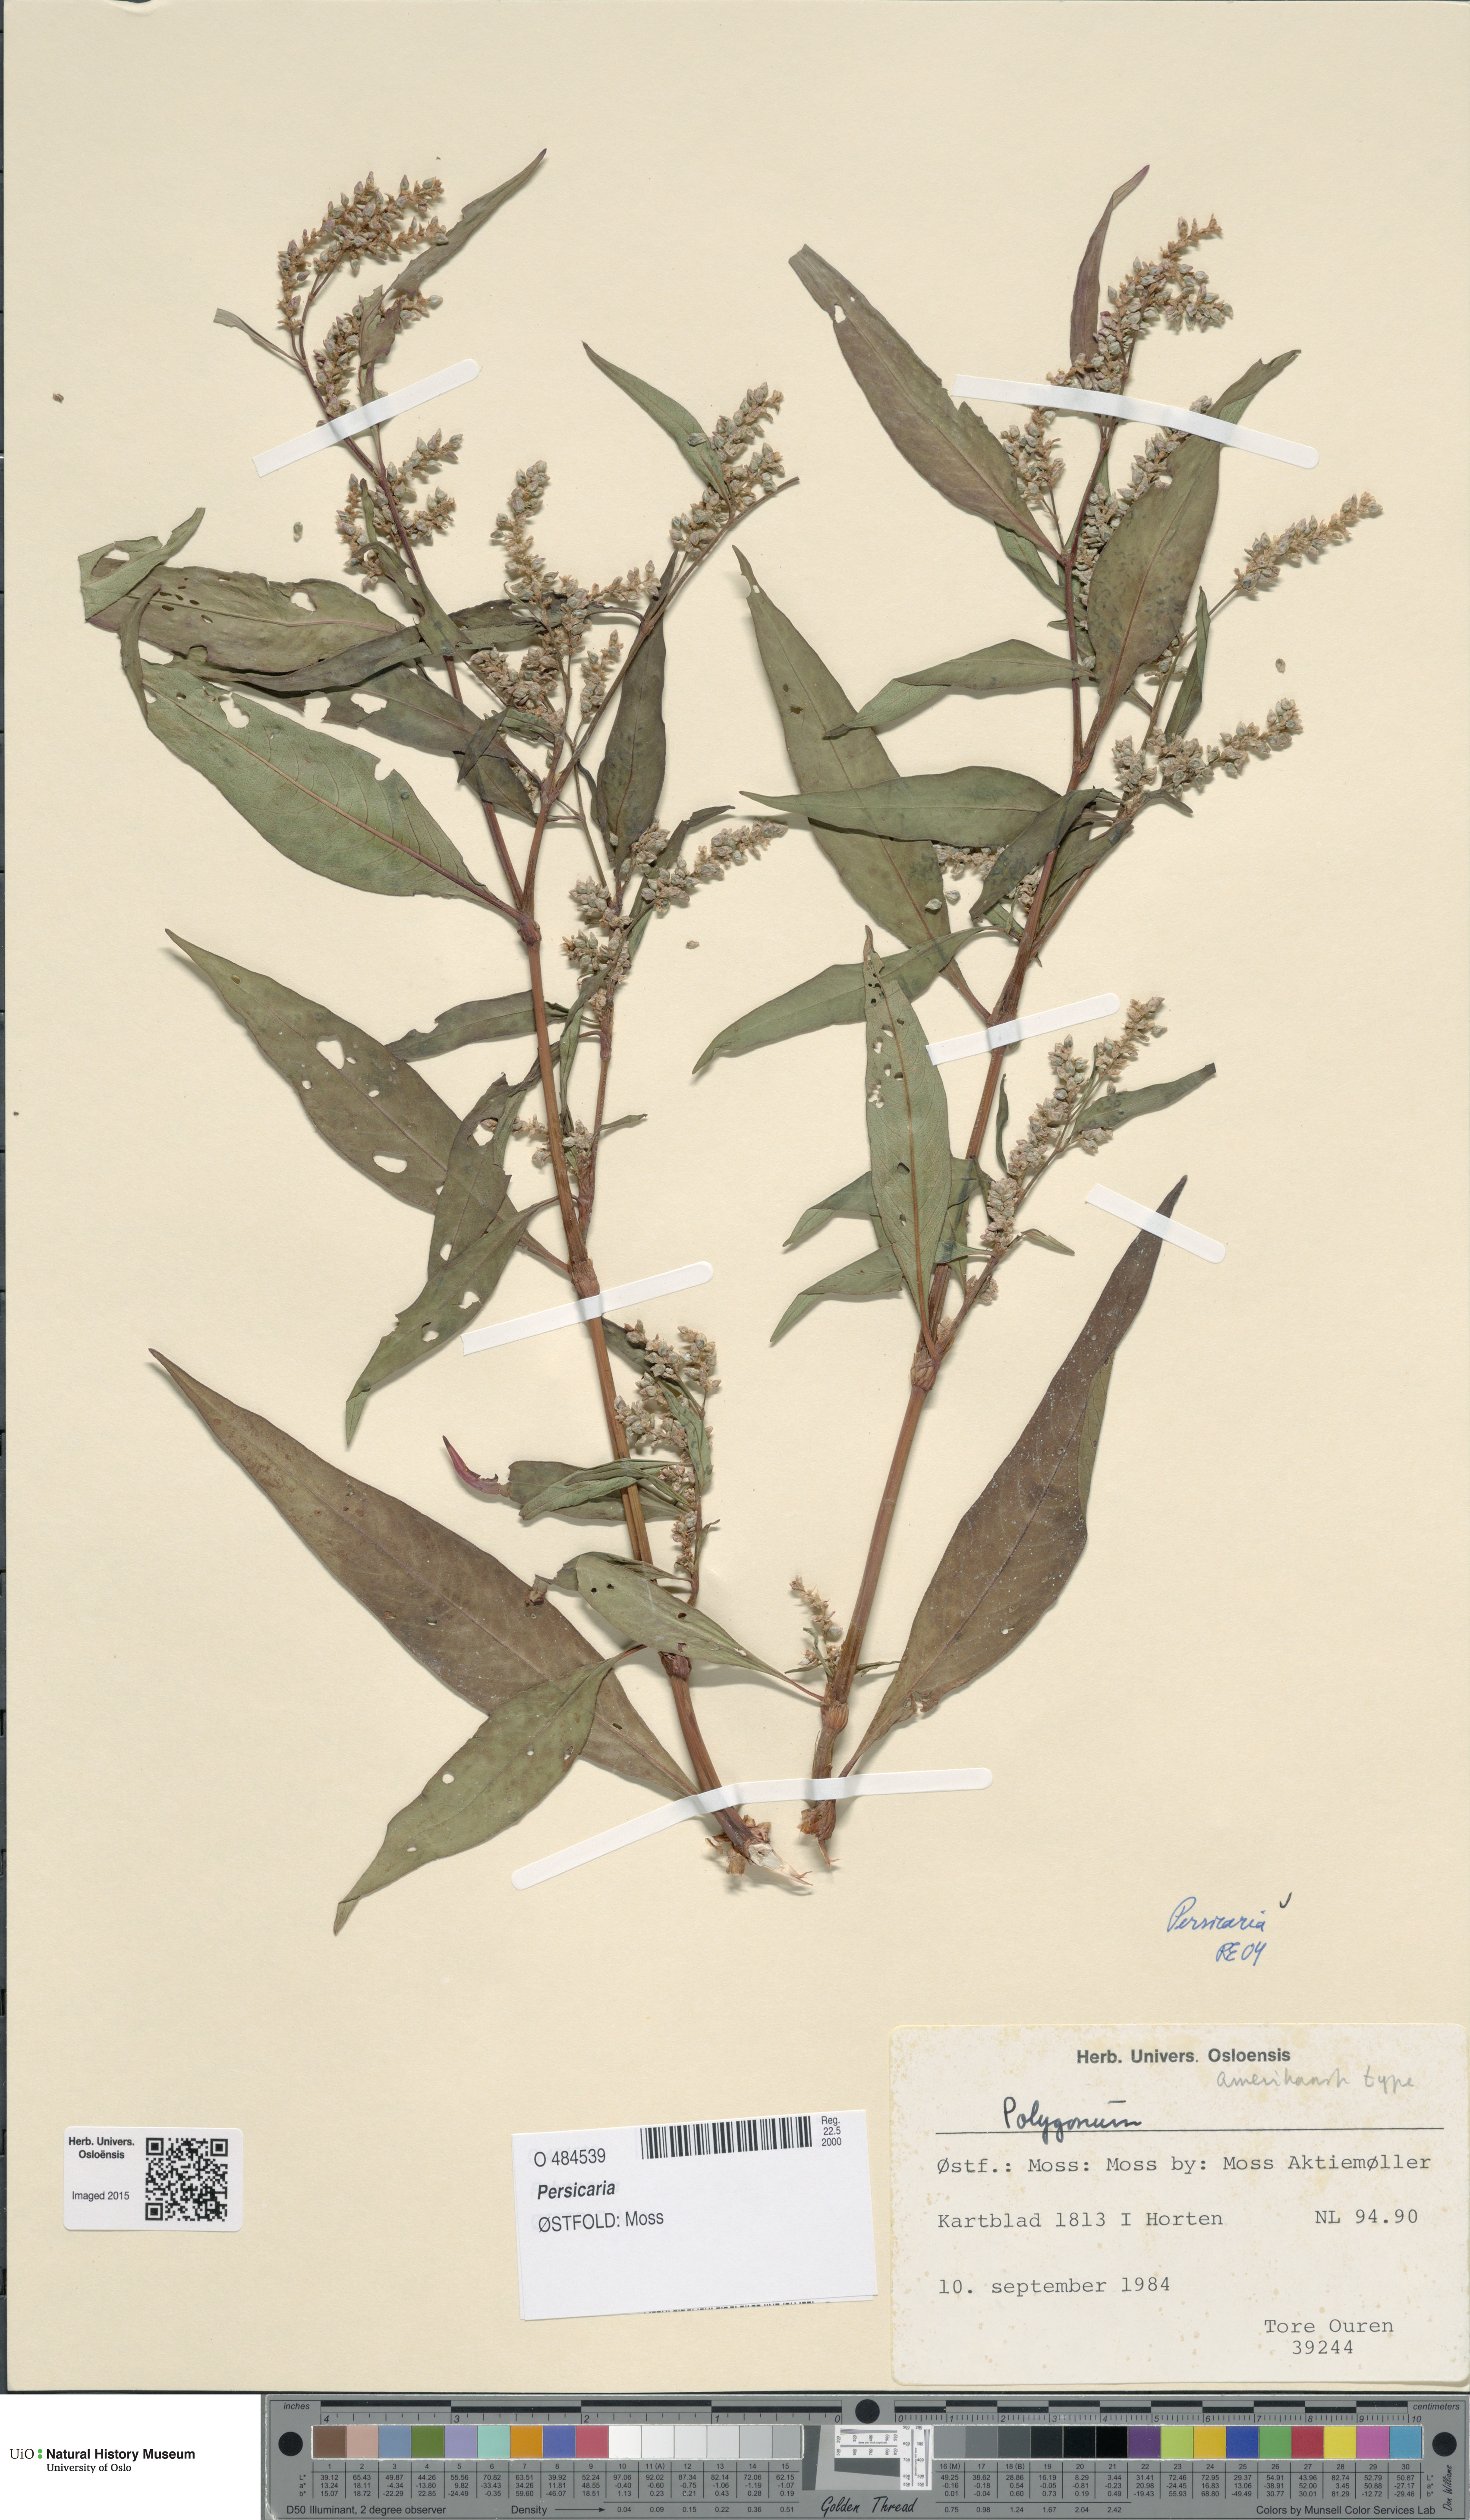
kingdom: Plantae
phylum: Tracheophyta
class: Magnoliopsida
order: Caryophyllales
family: Polygonaceae
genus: Persicaria
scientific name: Persicaria
